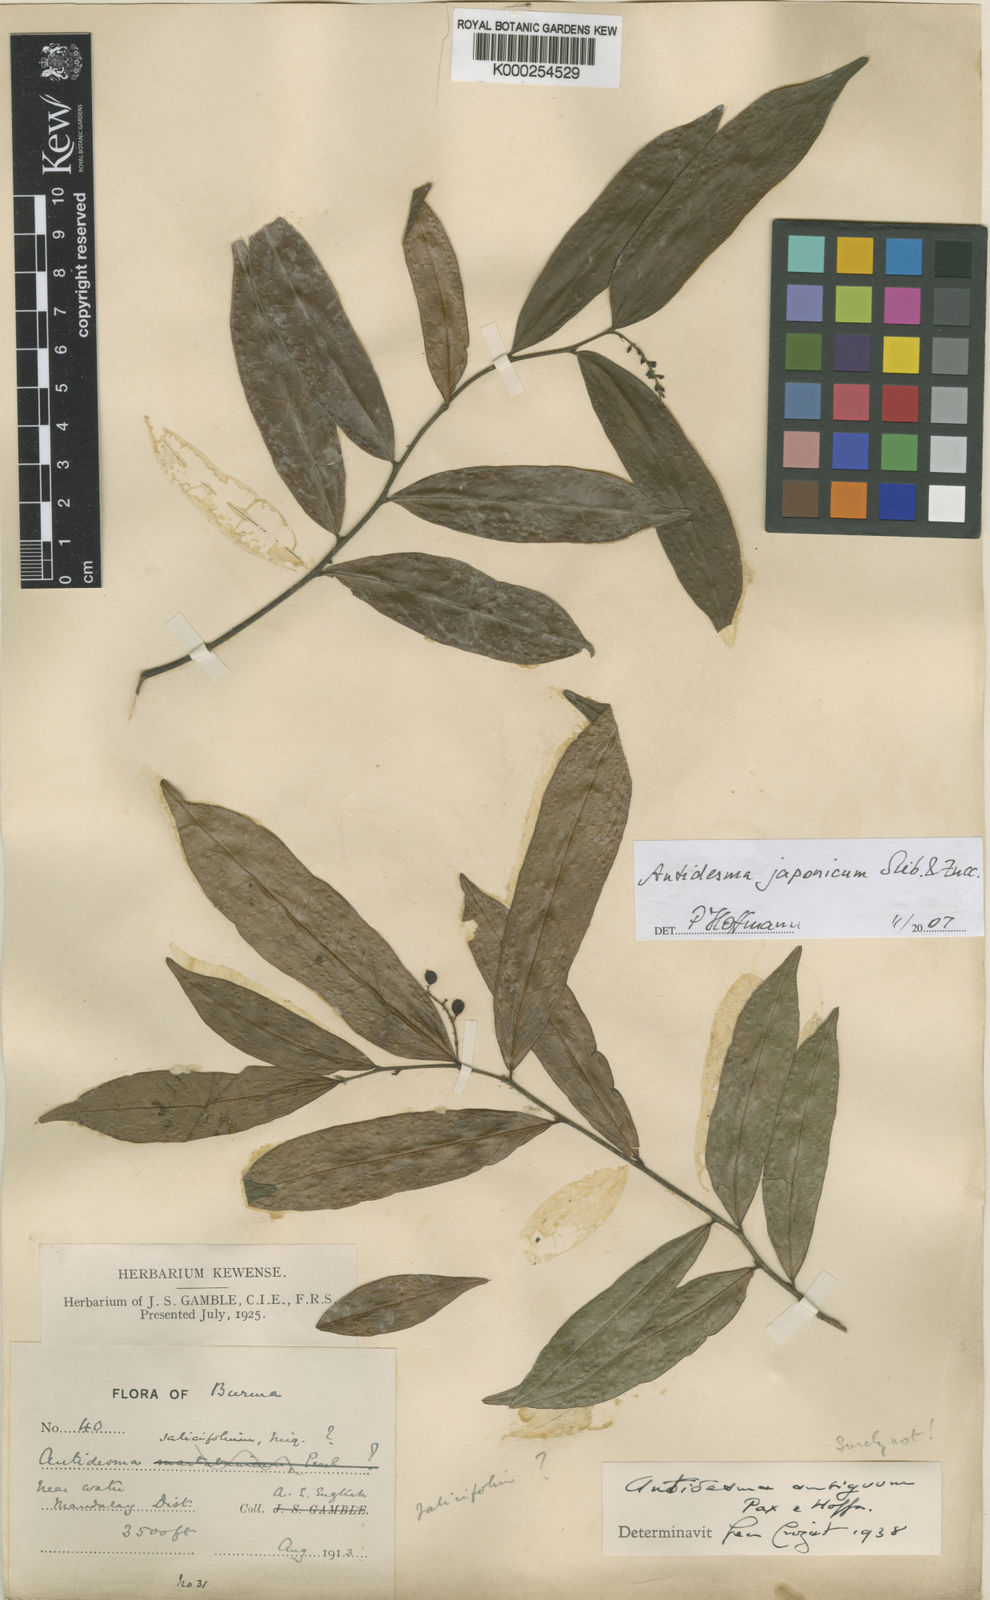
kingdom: Plantae
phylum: Tracheophyta
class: Magnoliopsida
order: Malpighiales
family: Phyllanthaceae
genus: Antidesma
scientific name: Antidesma japonicum
